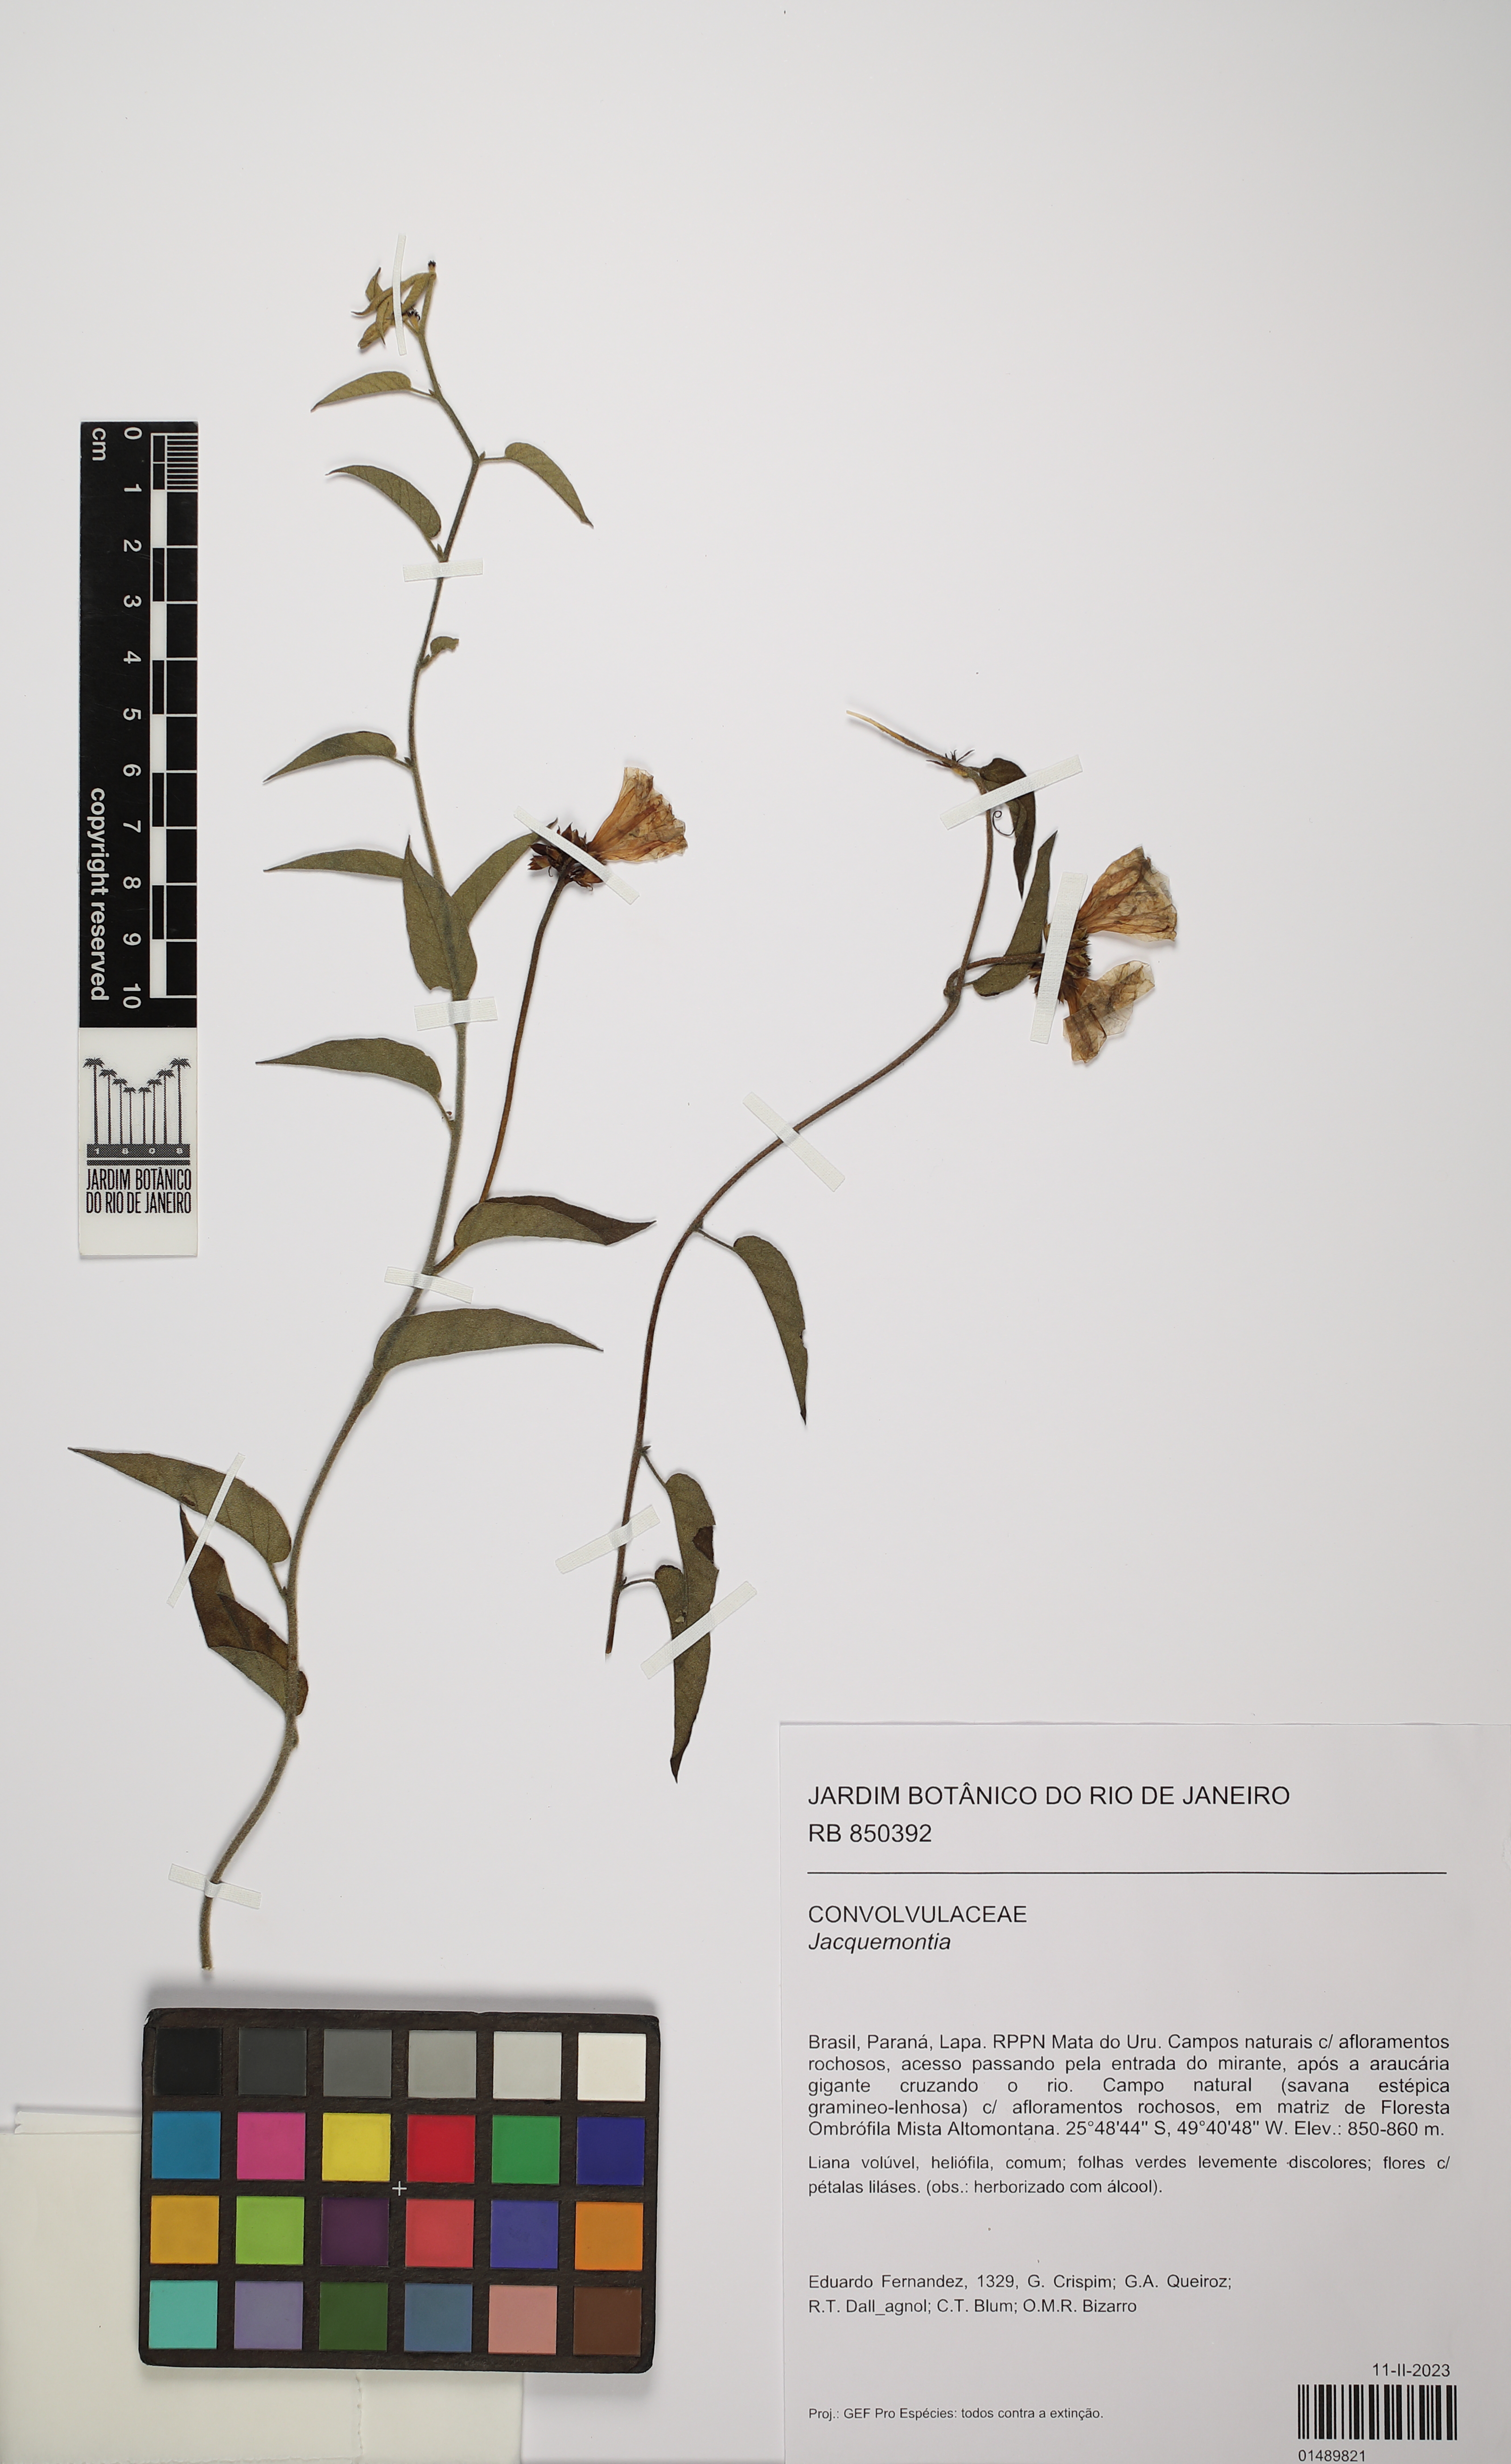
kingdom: Plantae
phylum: Tracheophyta
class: Magnoliopsida
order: Solanales
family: Convolvulaceae
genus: Jacquemontia
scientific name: Jacquemontia
